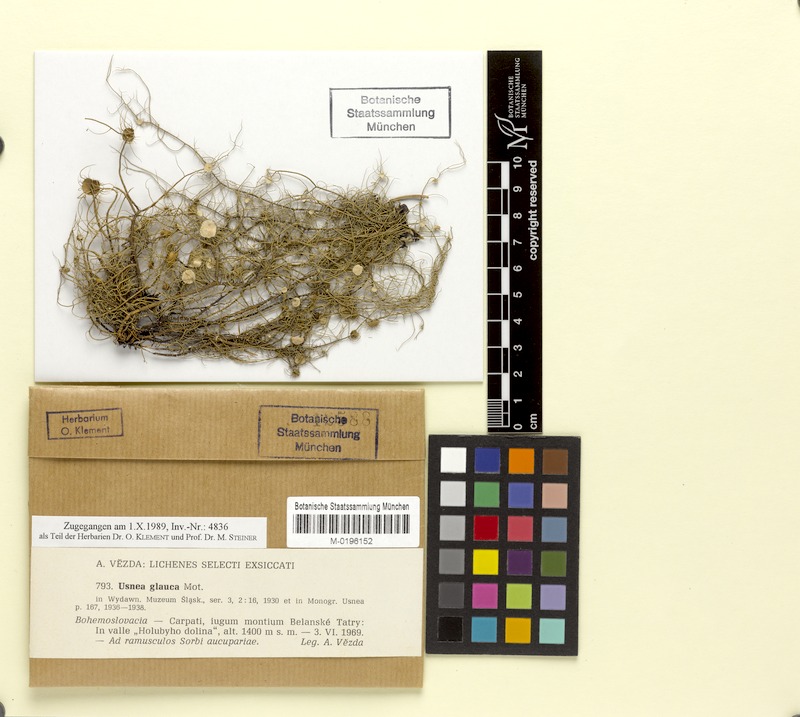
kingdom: Fungi
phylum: Ascomycota
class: Lecanoromycetes
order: Lecanorales
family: Parmeliaceae
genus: Usnea
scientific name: Usnea glauca
